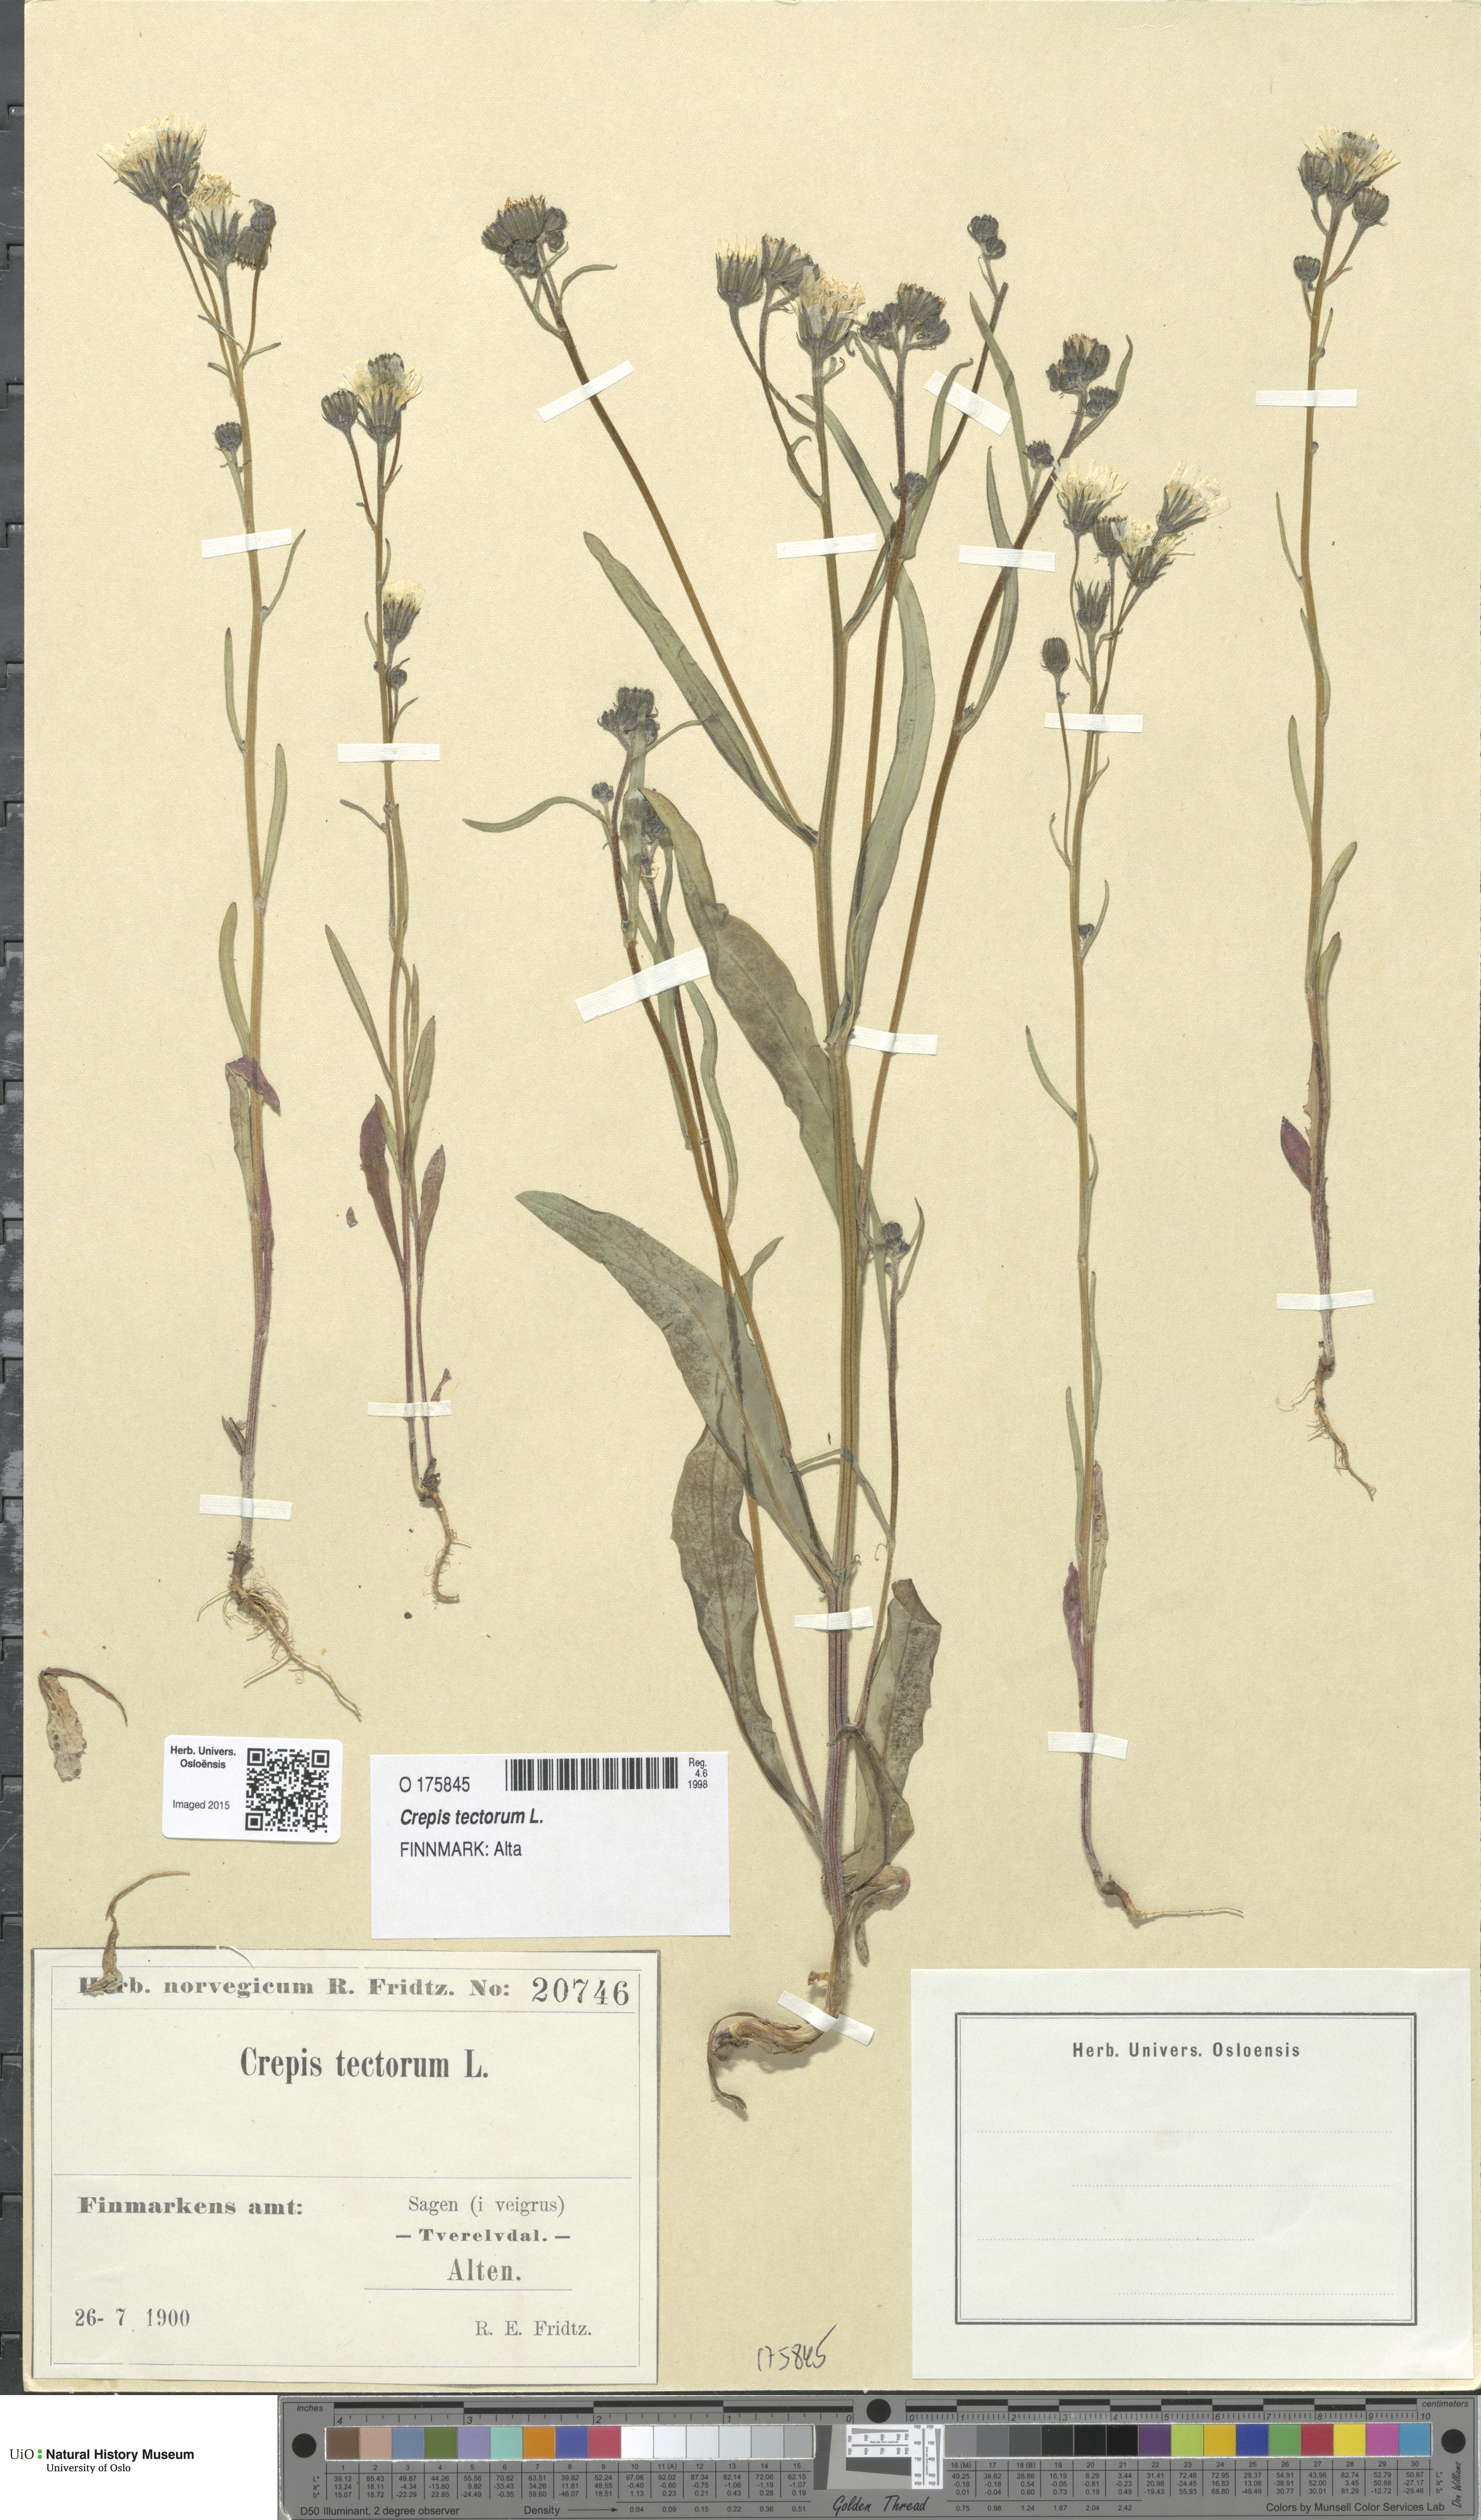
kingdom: Plantae
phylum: Tracheophyta
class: Magnoliopsida
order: Asterales
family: Asteraceae
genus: Crepis
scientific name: Crepis tectorum
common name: Narrow-leaved hawk's-beard
